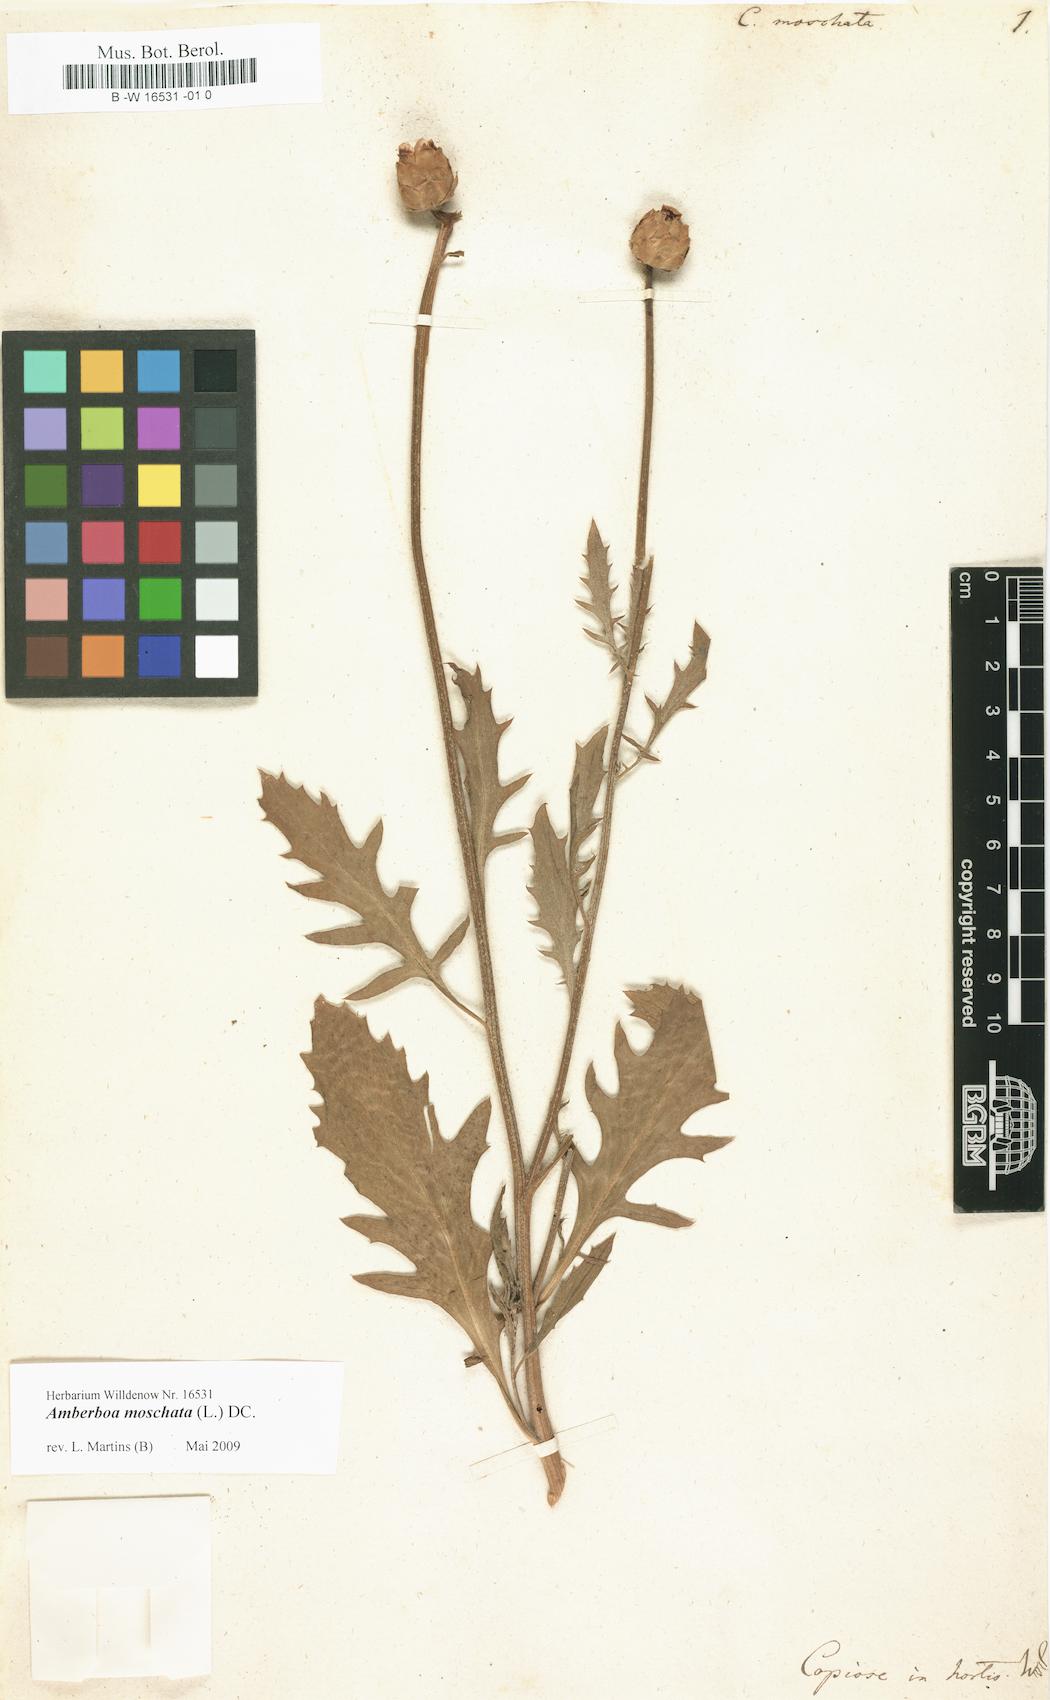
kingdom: Plantae
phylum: Tracheophyta
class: Magnoliopsida
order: Asterales
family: Asteraceae
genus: Amberboa
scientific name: Amberboa moschata
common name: Sweet-sultan
